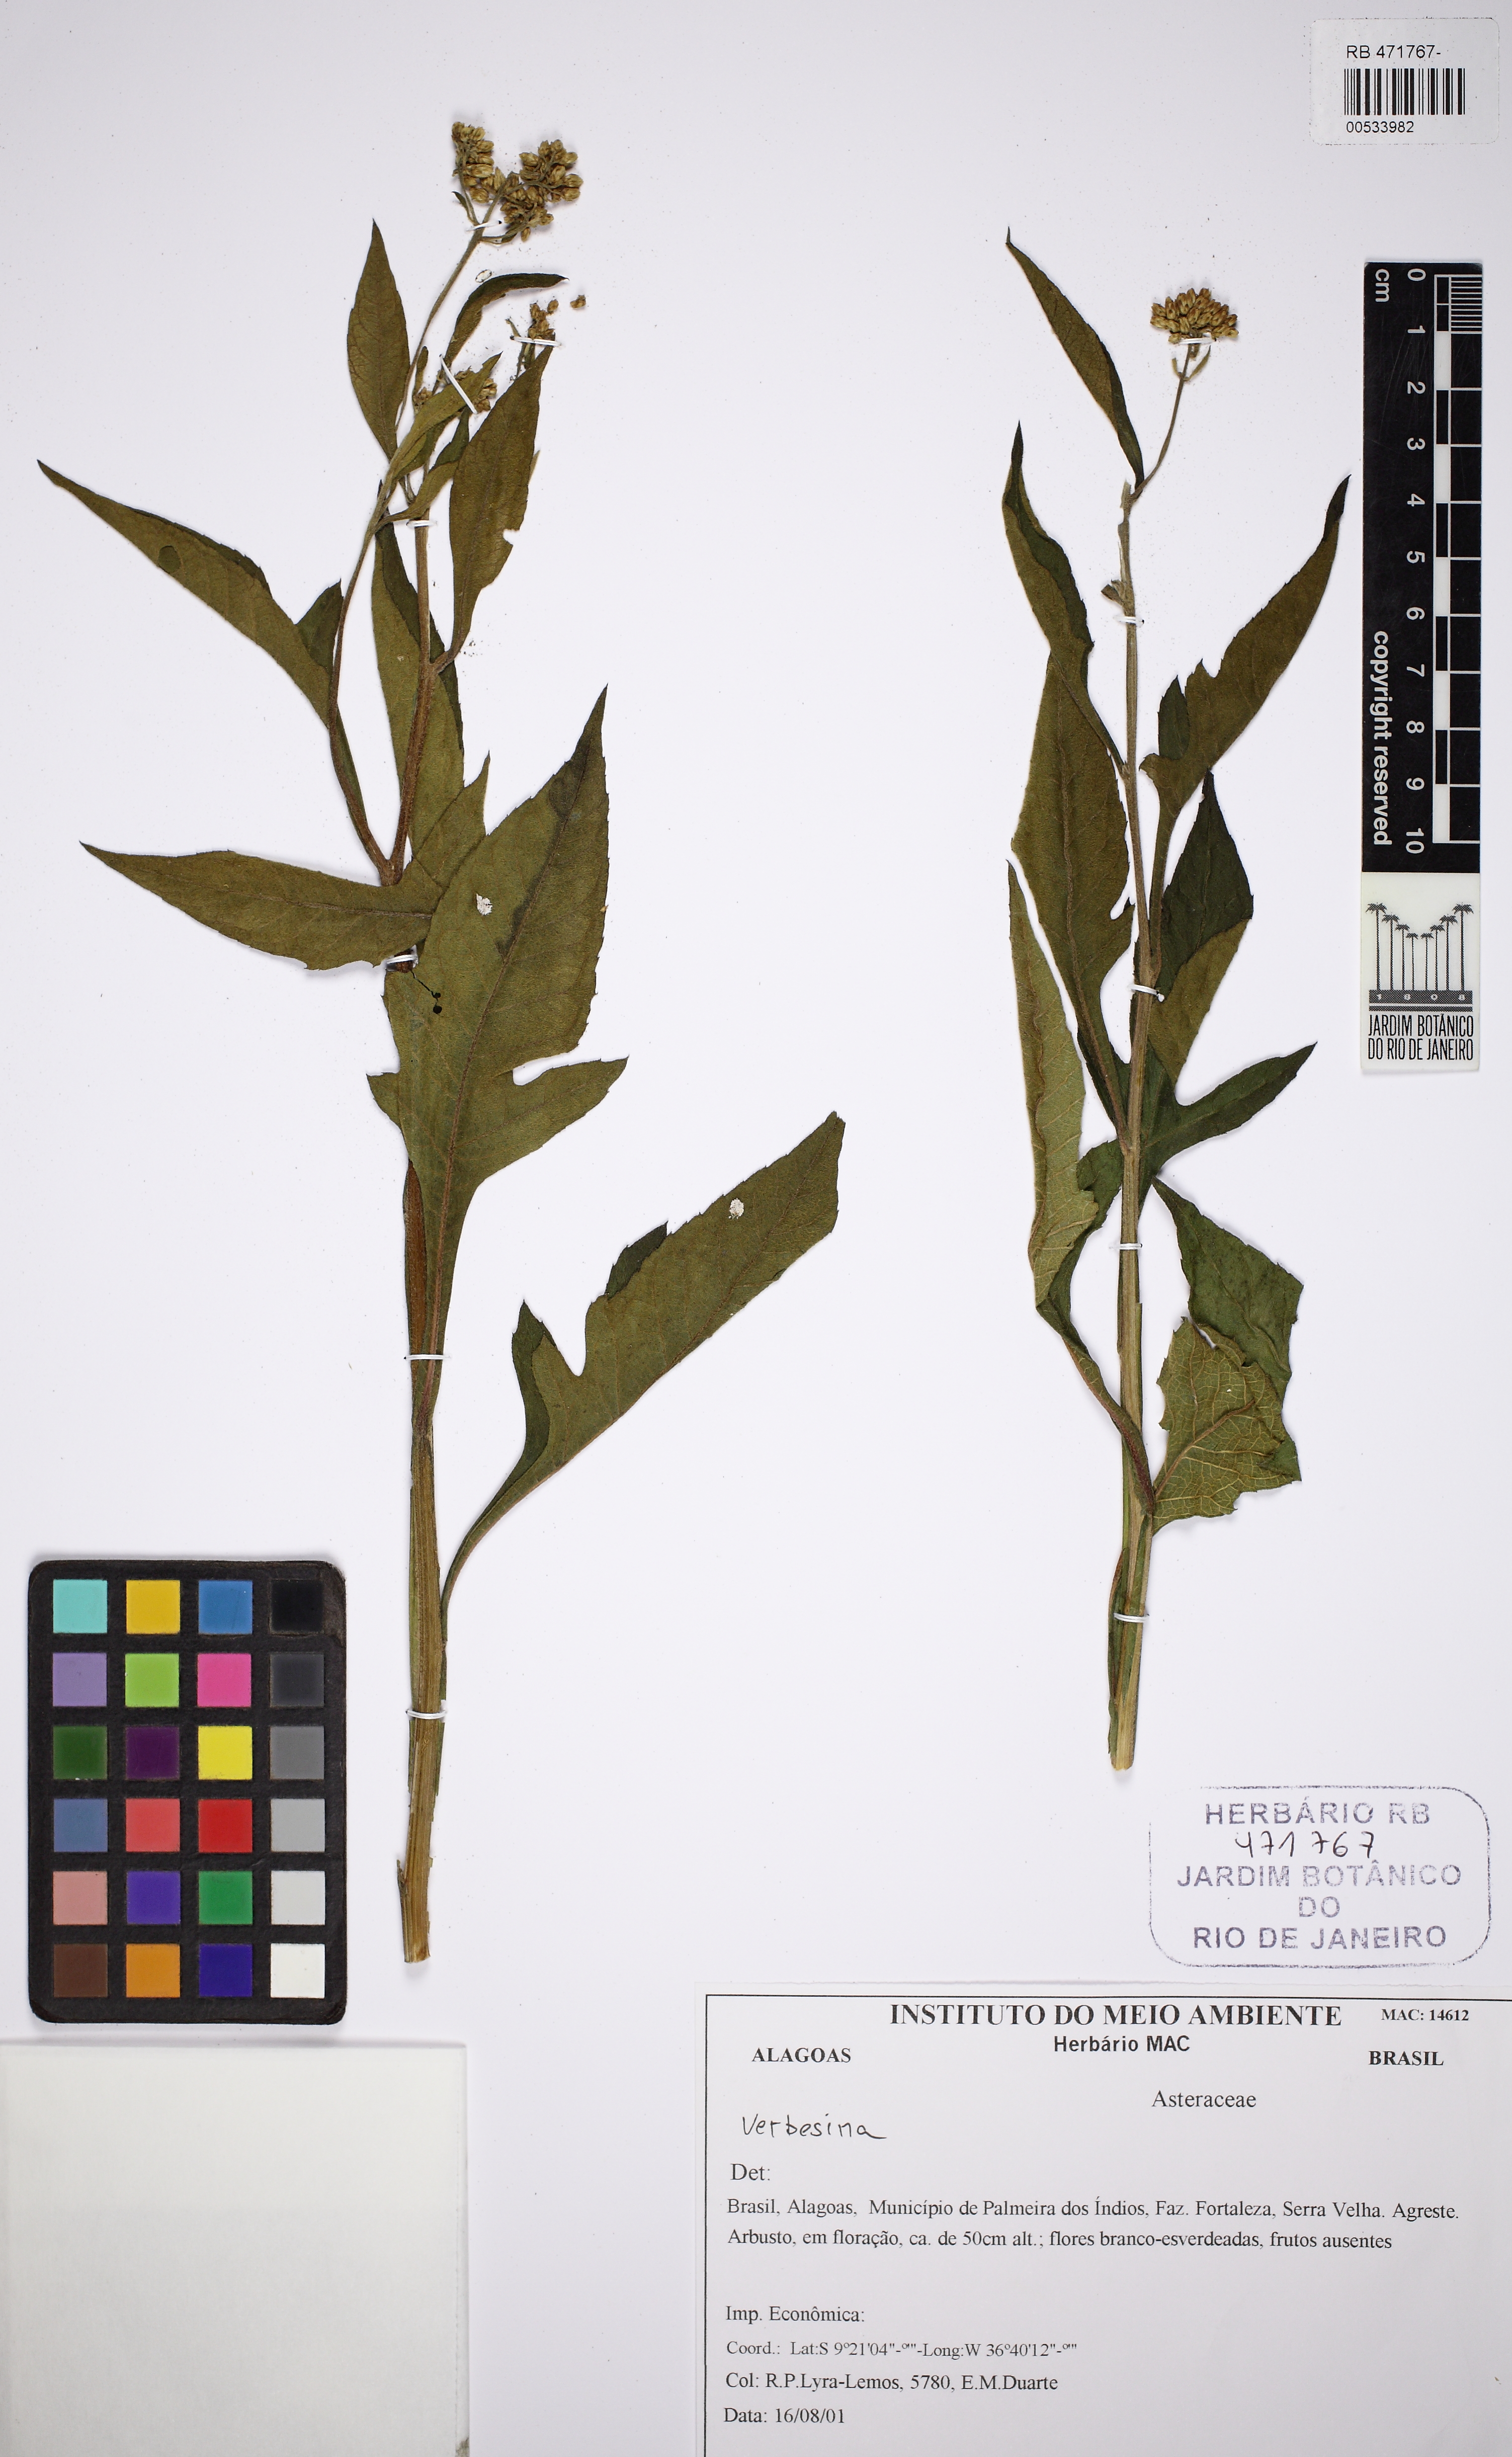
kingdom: Plantae
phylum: Tracheophyta
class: Magnoliopsida
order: Asterales
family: Asteraceae
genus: Verbesina
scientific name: Verbesina macrophylla
